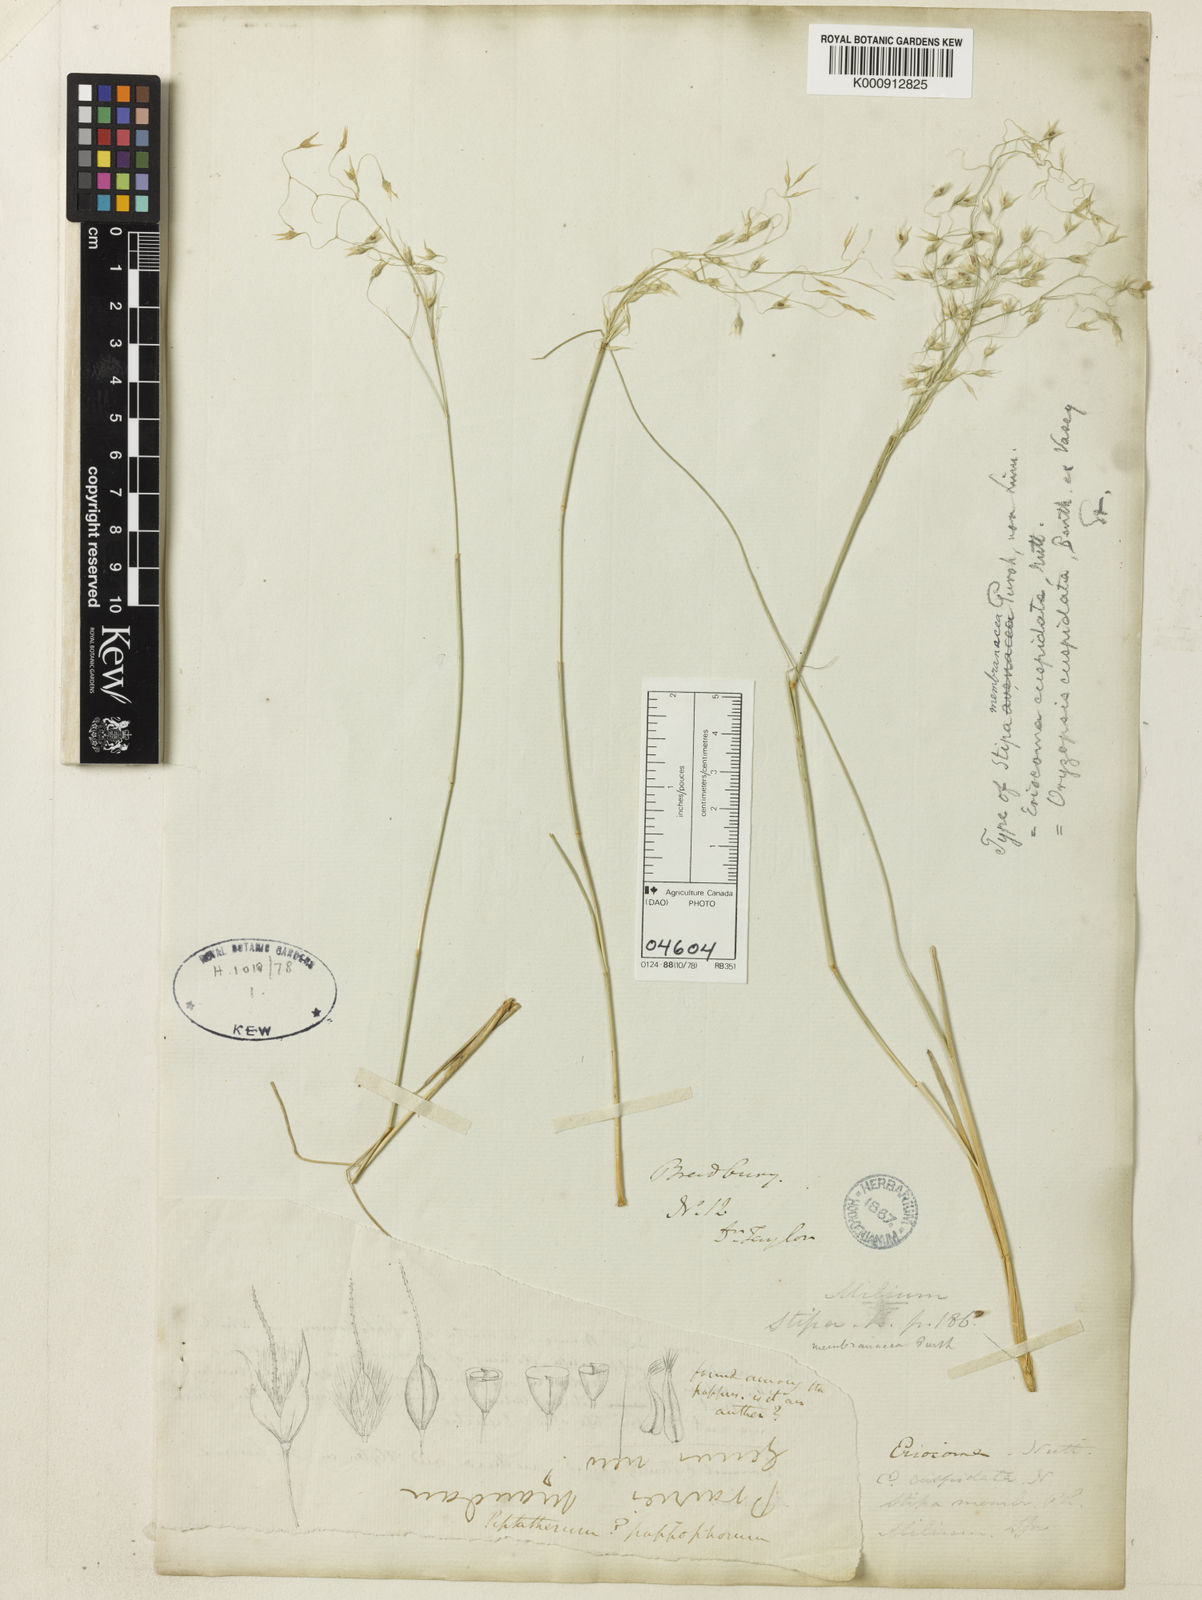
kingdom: Plantae
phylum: Tracheophyta
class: Liliopsida
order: Poales
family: Poaceae
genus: Eriocoma
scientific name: Eriocoma hymenoides
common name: Indian mountain ricegrass
